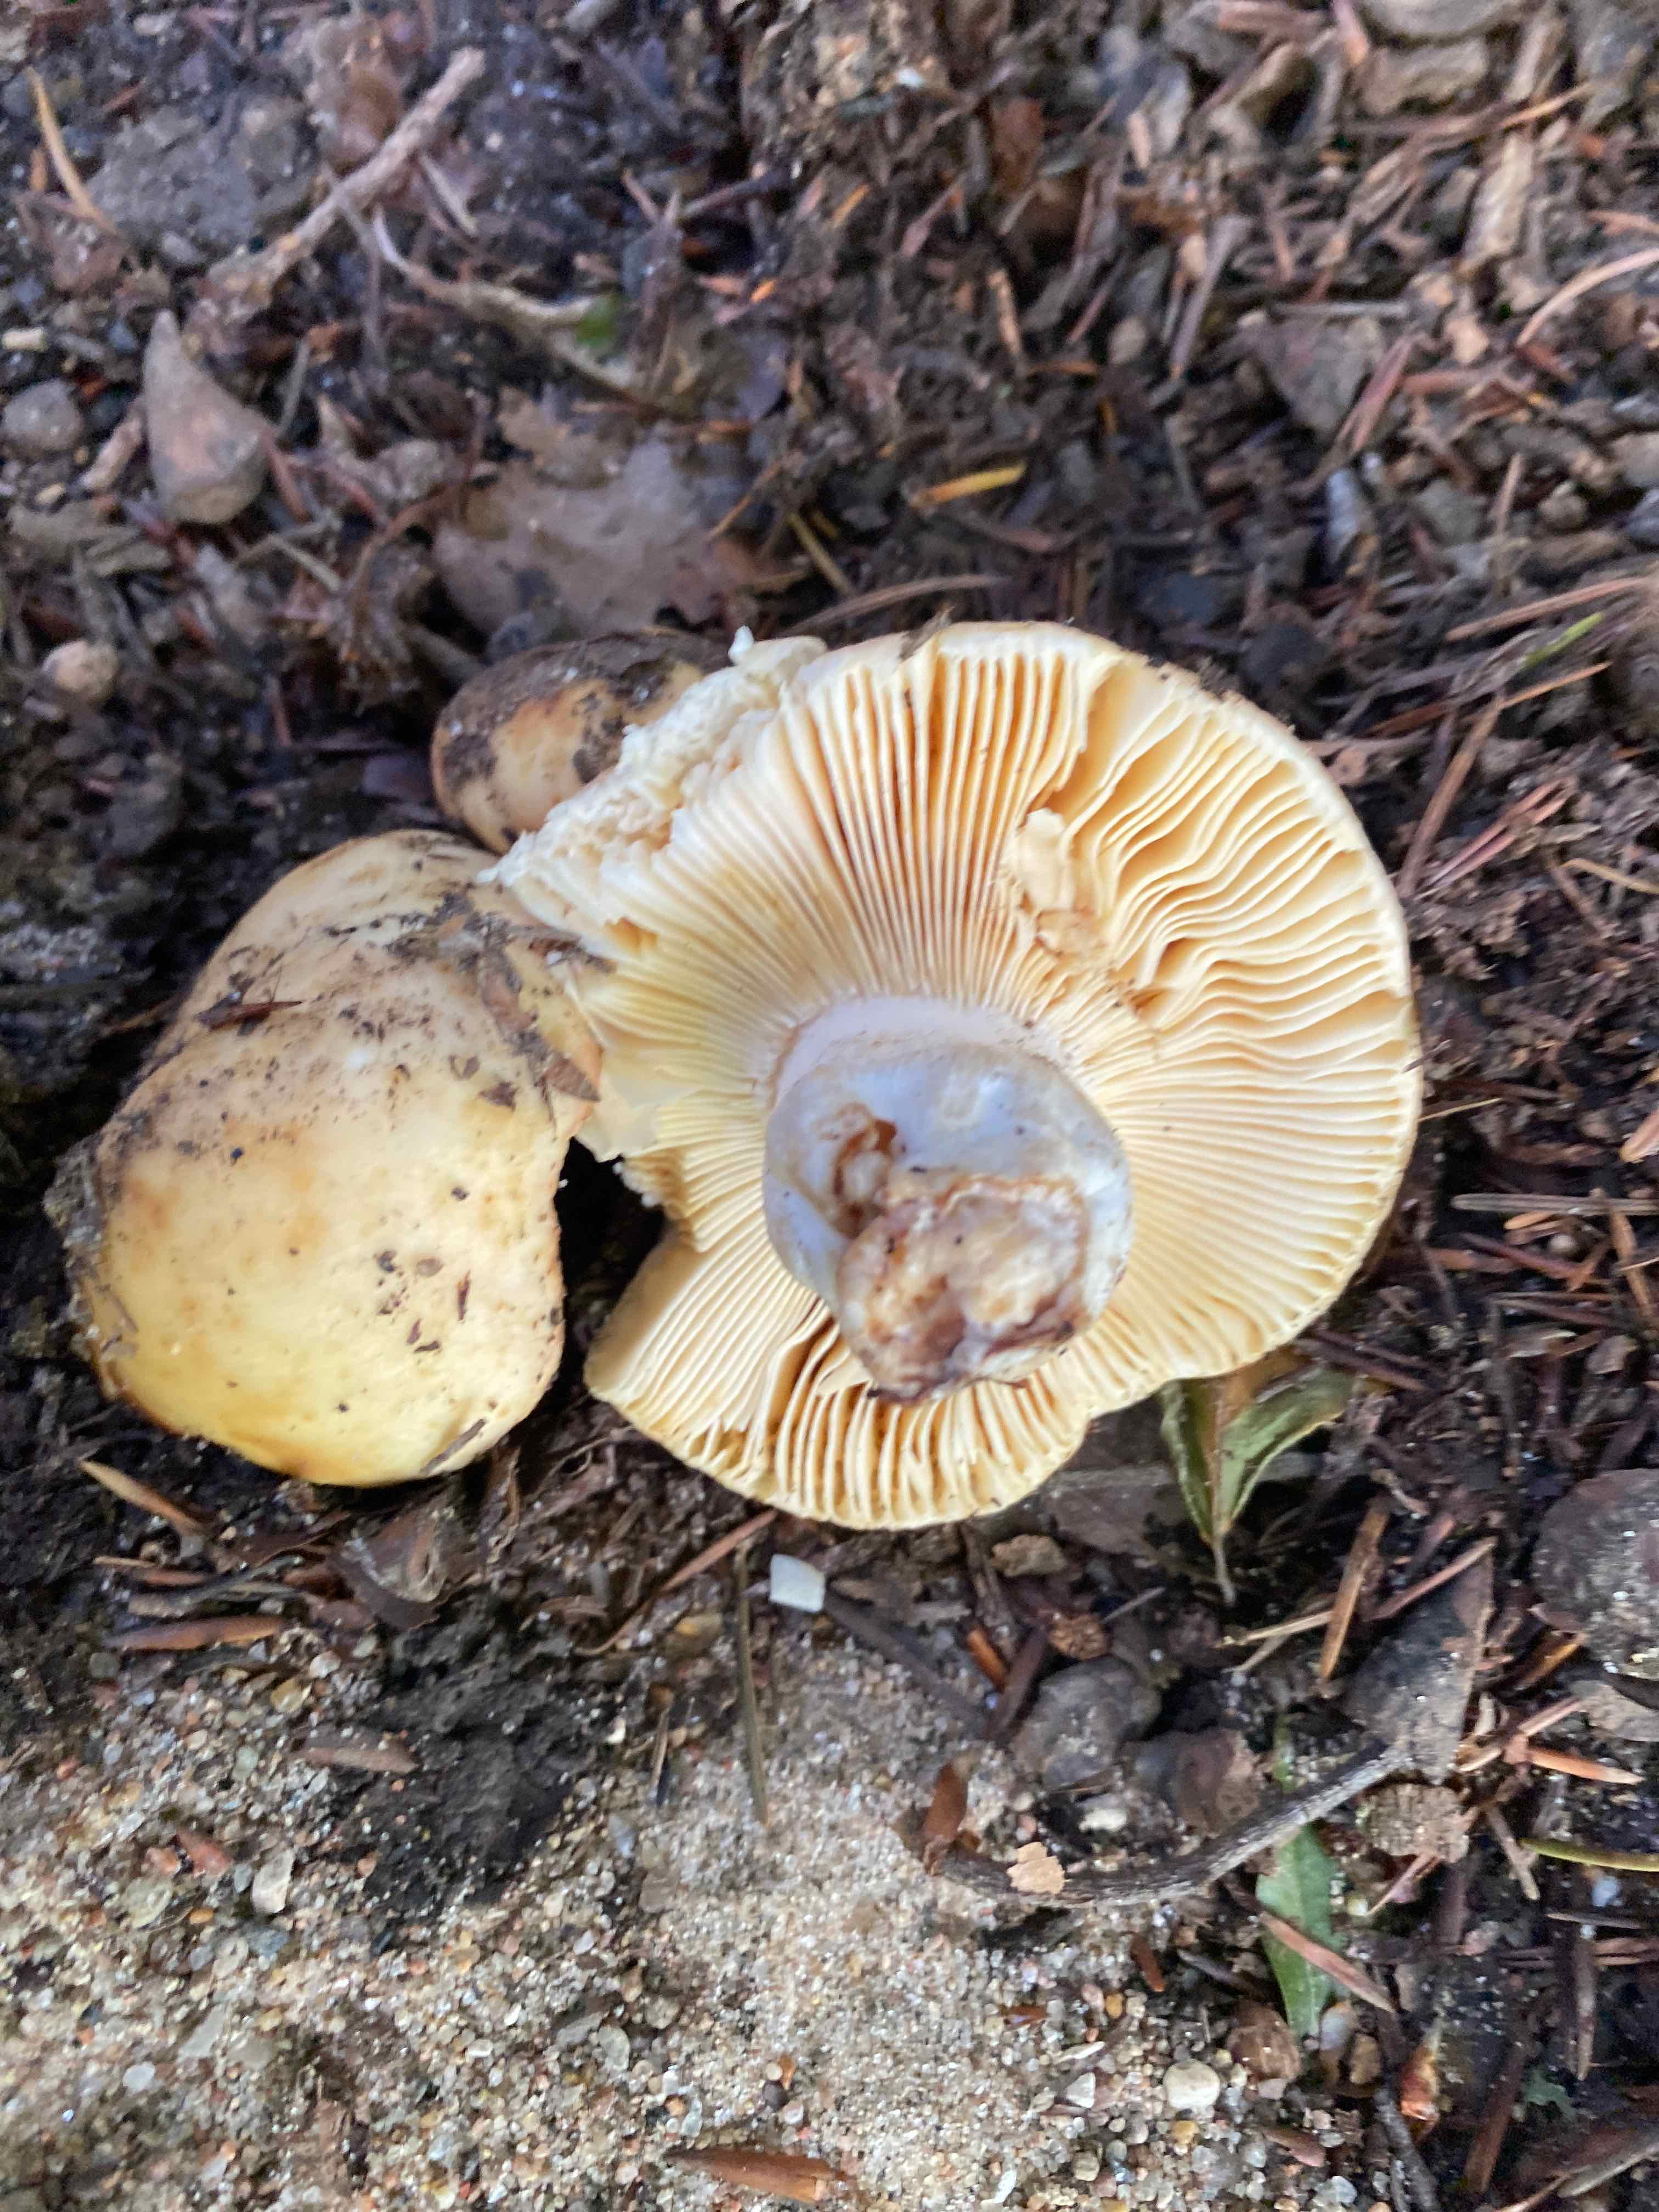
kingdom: Fungi
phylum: Basidiomycota
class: Agaricomycetes
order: Russulales
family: Russulaceae
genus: Russula
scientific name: Russula fellea
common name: galde-skørhat
